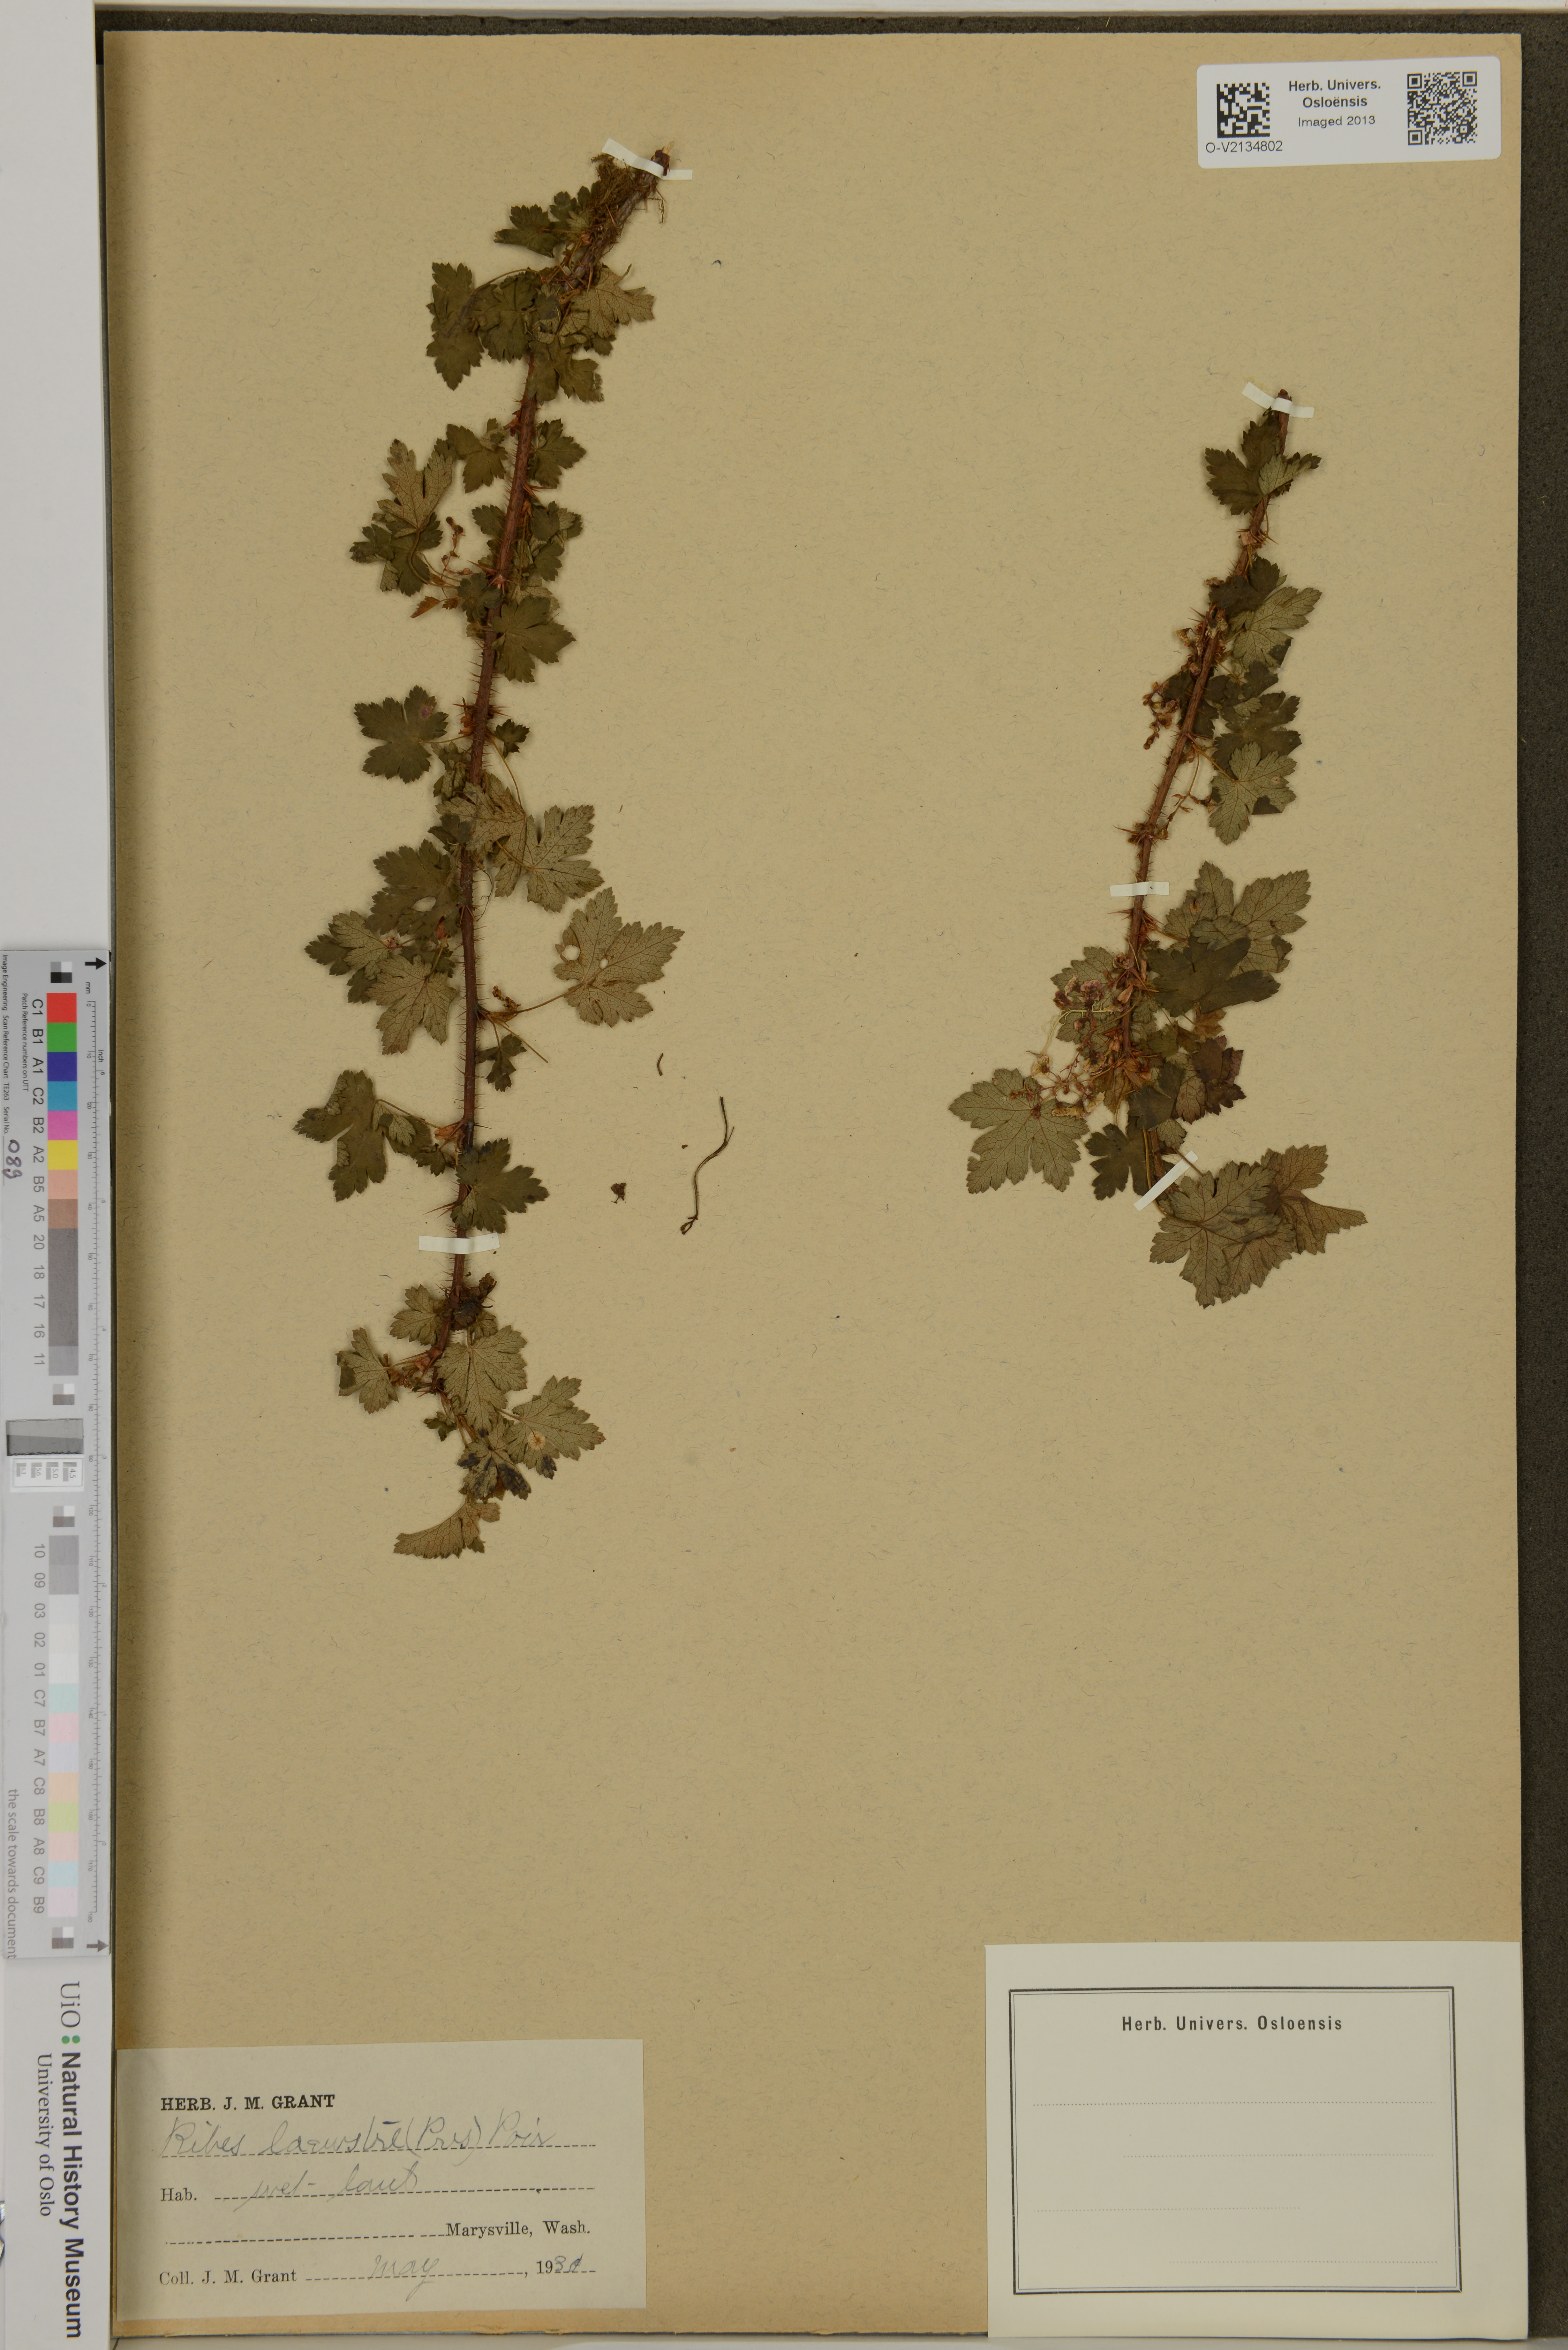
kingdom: Plantae
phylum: Tracheophyta
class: Magnoliopsida
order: Saxifragales
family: Grossulariaceae
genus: Ribes
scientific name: Ribes lacustre
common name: Black gooseberry
